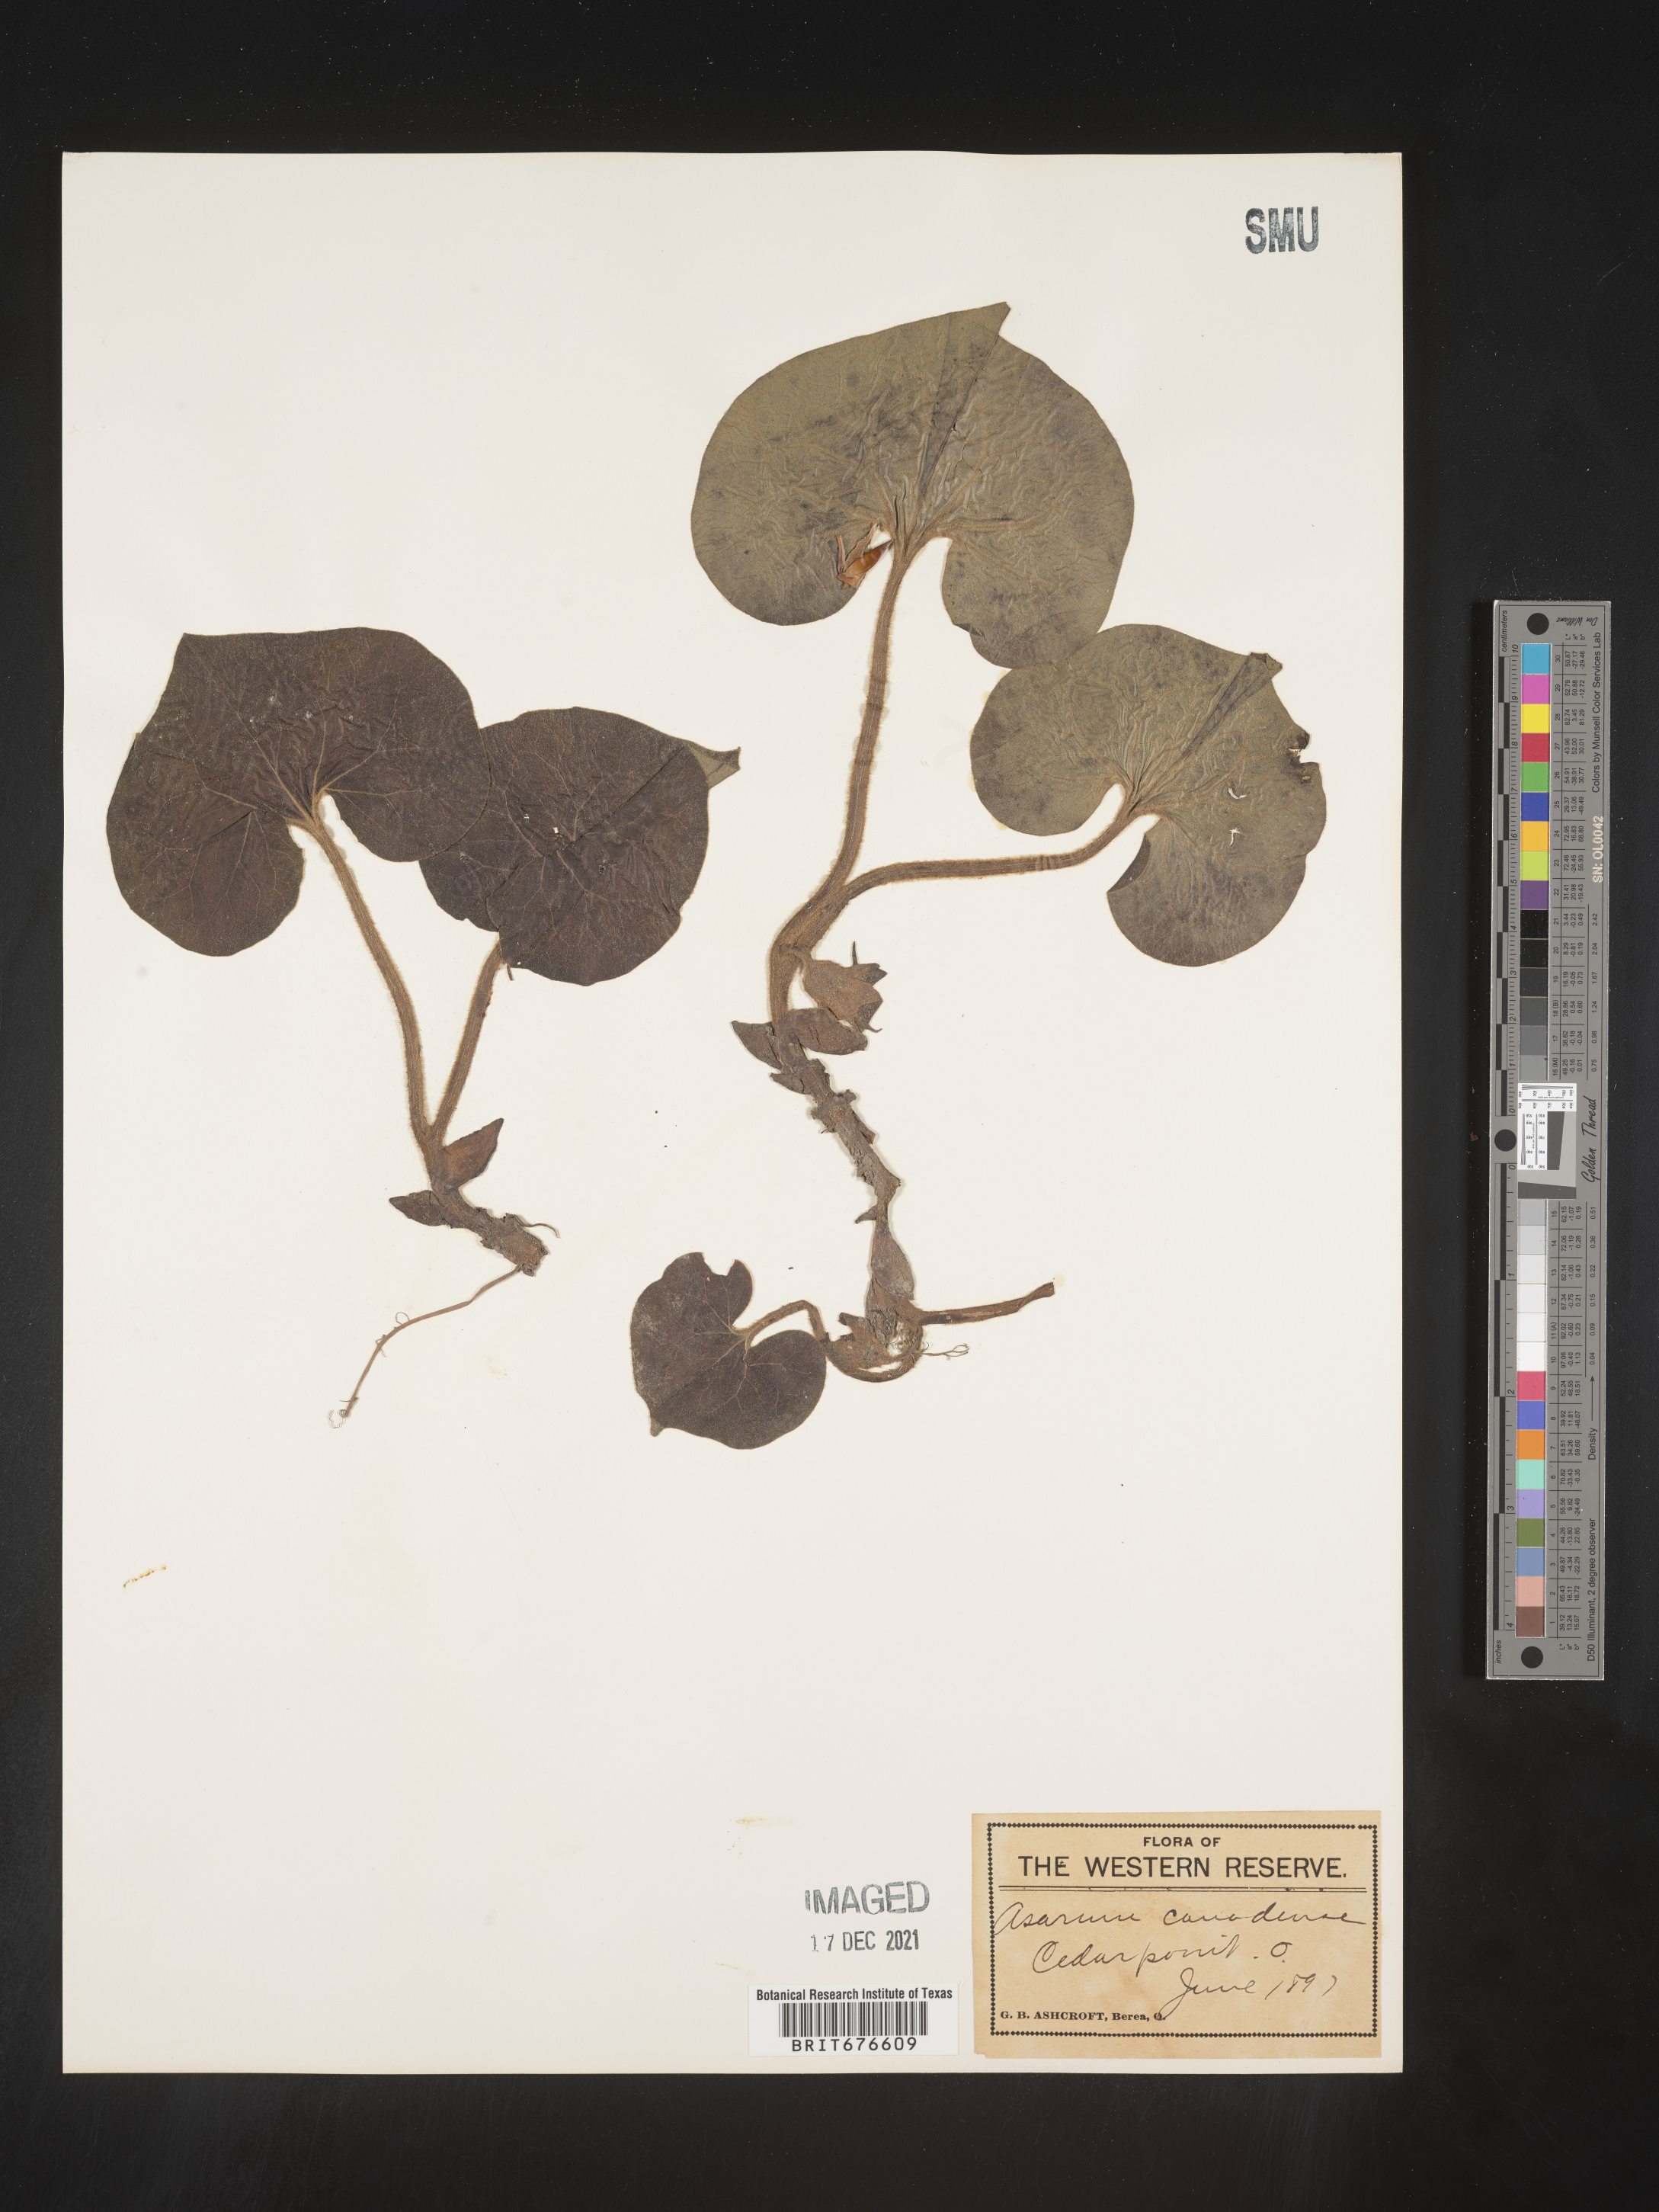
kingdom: Plantae
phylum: Tracheophyta
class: Magnoliopsida
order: Piperales
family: Aristolochiaceae
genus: Asarum
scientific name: Asarum canadense
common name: Wild ginger
